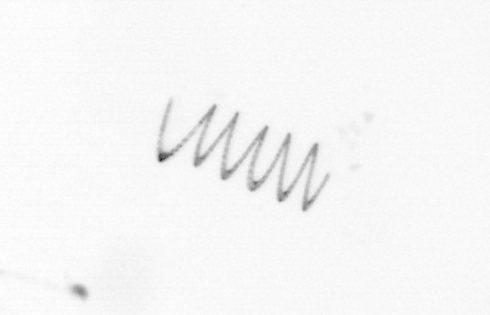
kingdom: Chromista
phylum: Ochrophyta
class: Bacillariophyceae
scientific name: Bacillariophyceae
